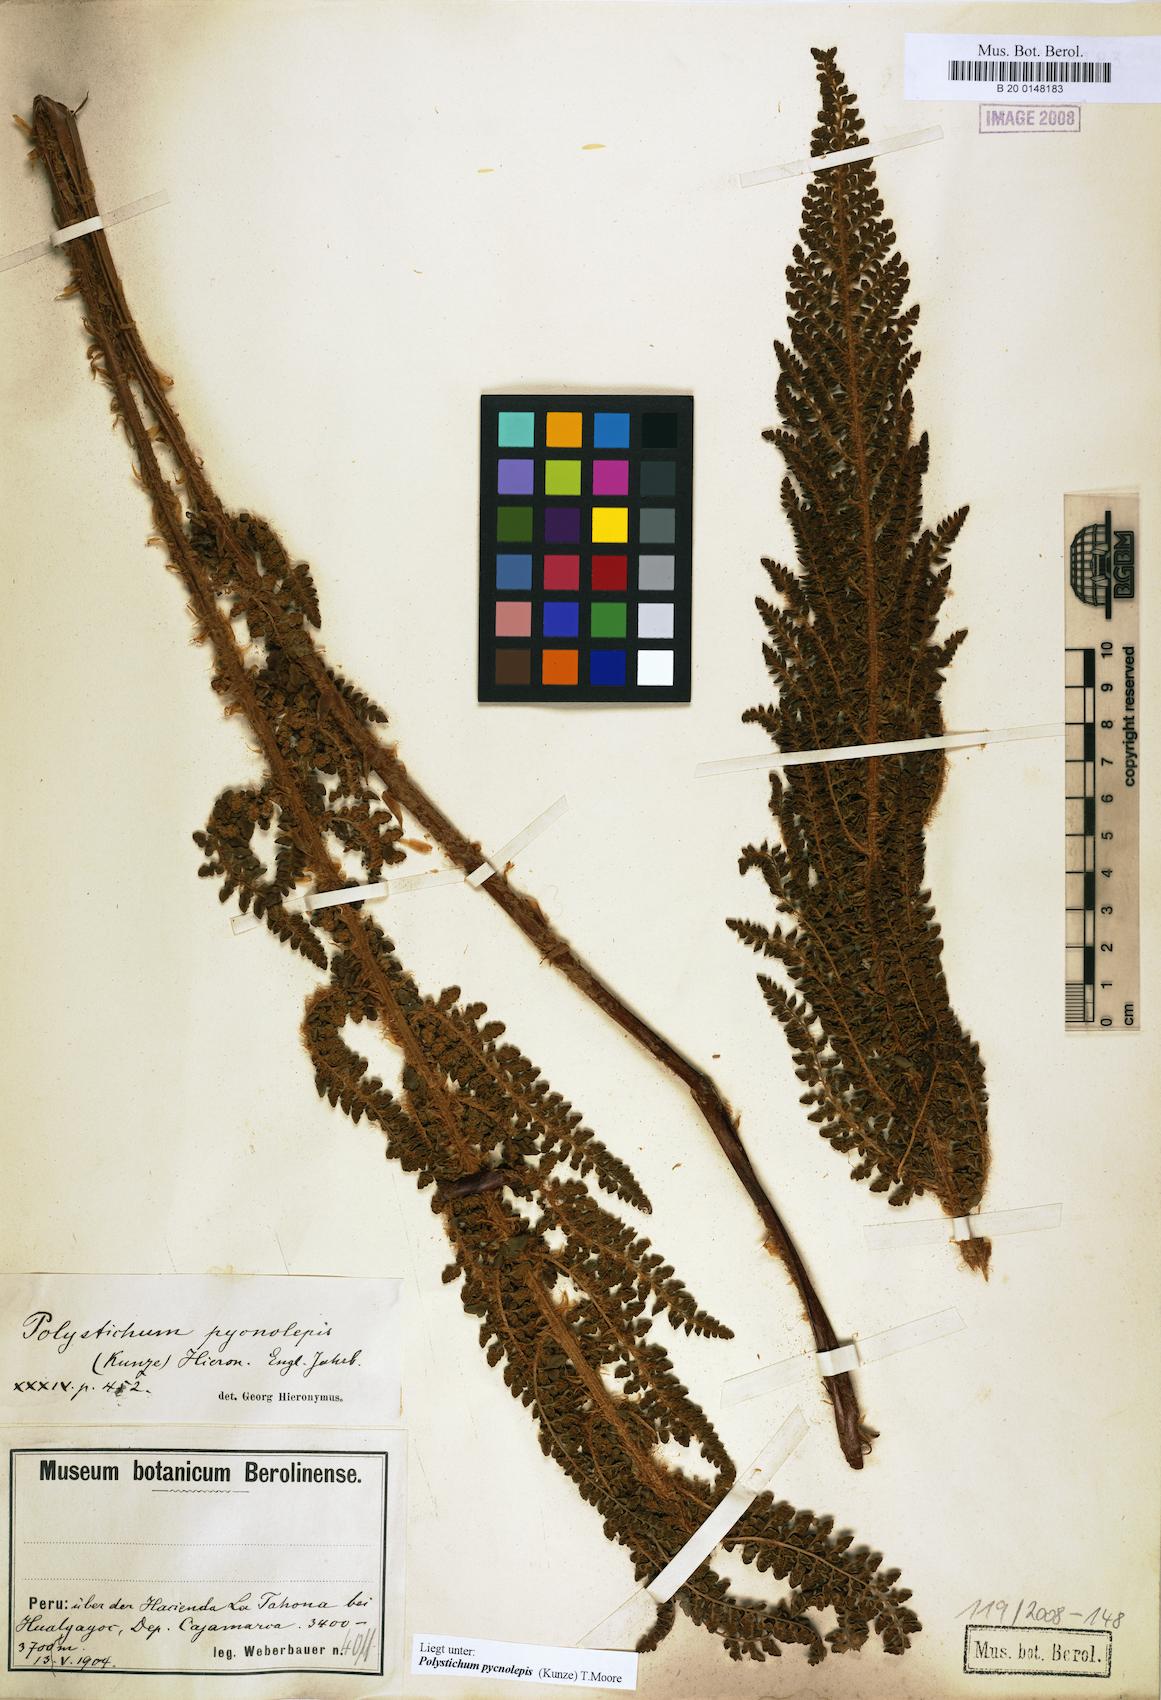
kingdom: Plantae
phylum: Tracheophyta
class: Polypodiopsida
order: Polypodiales
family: Dryopteridaceae
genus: Polystichum
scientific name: Polystichum pycnolepis
